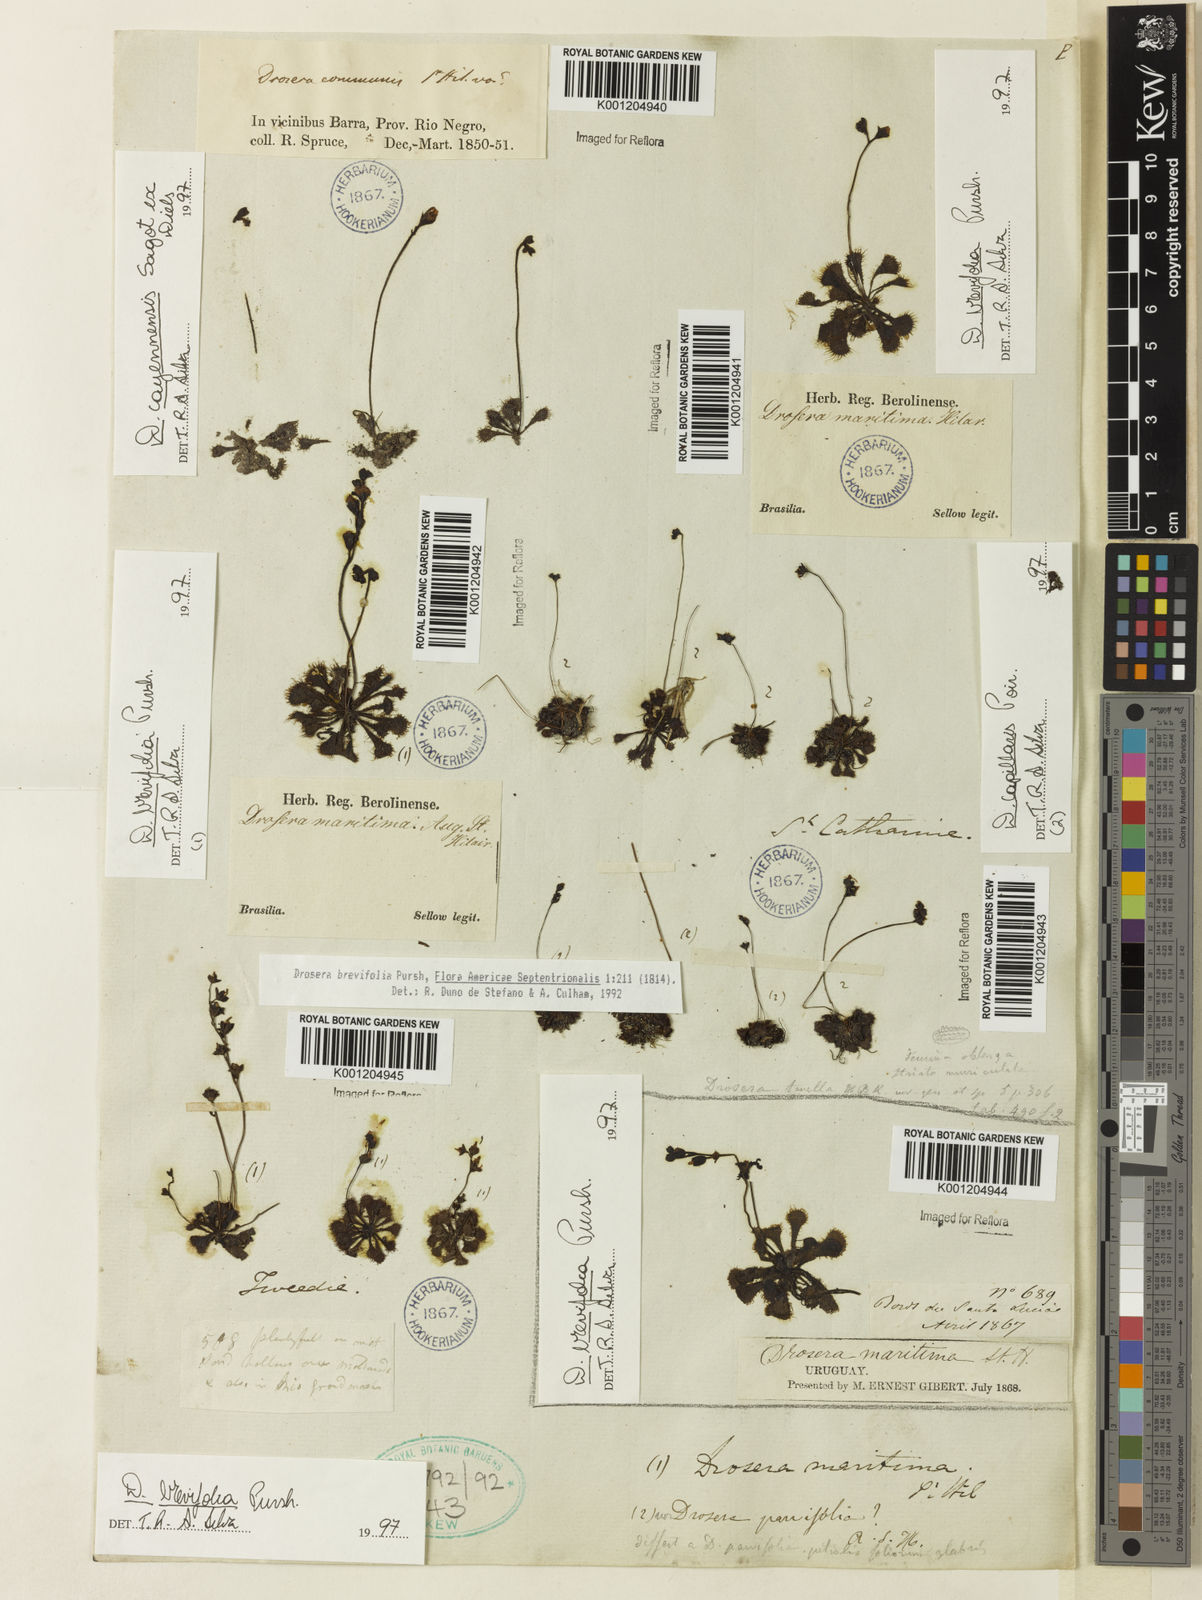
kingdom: Plantae
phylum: Tracheophyta
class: Magnoliopsida
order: Caryophyllales
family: Droseraceae
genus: Drosera
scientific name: Drosera brevifolia
